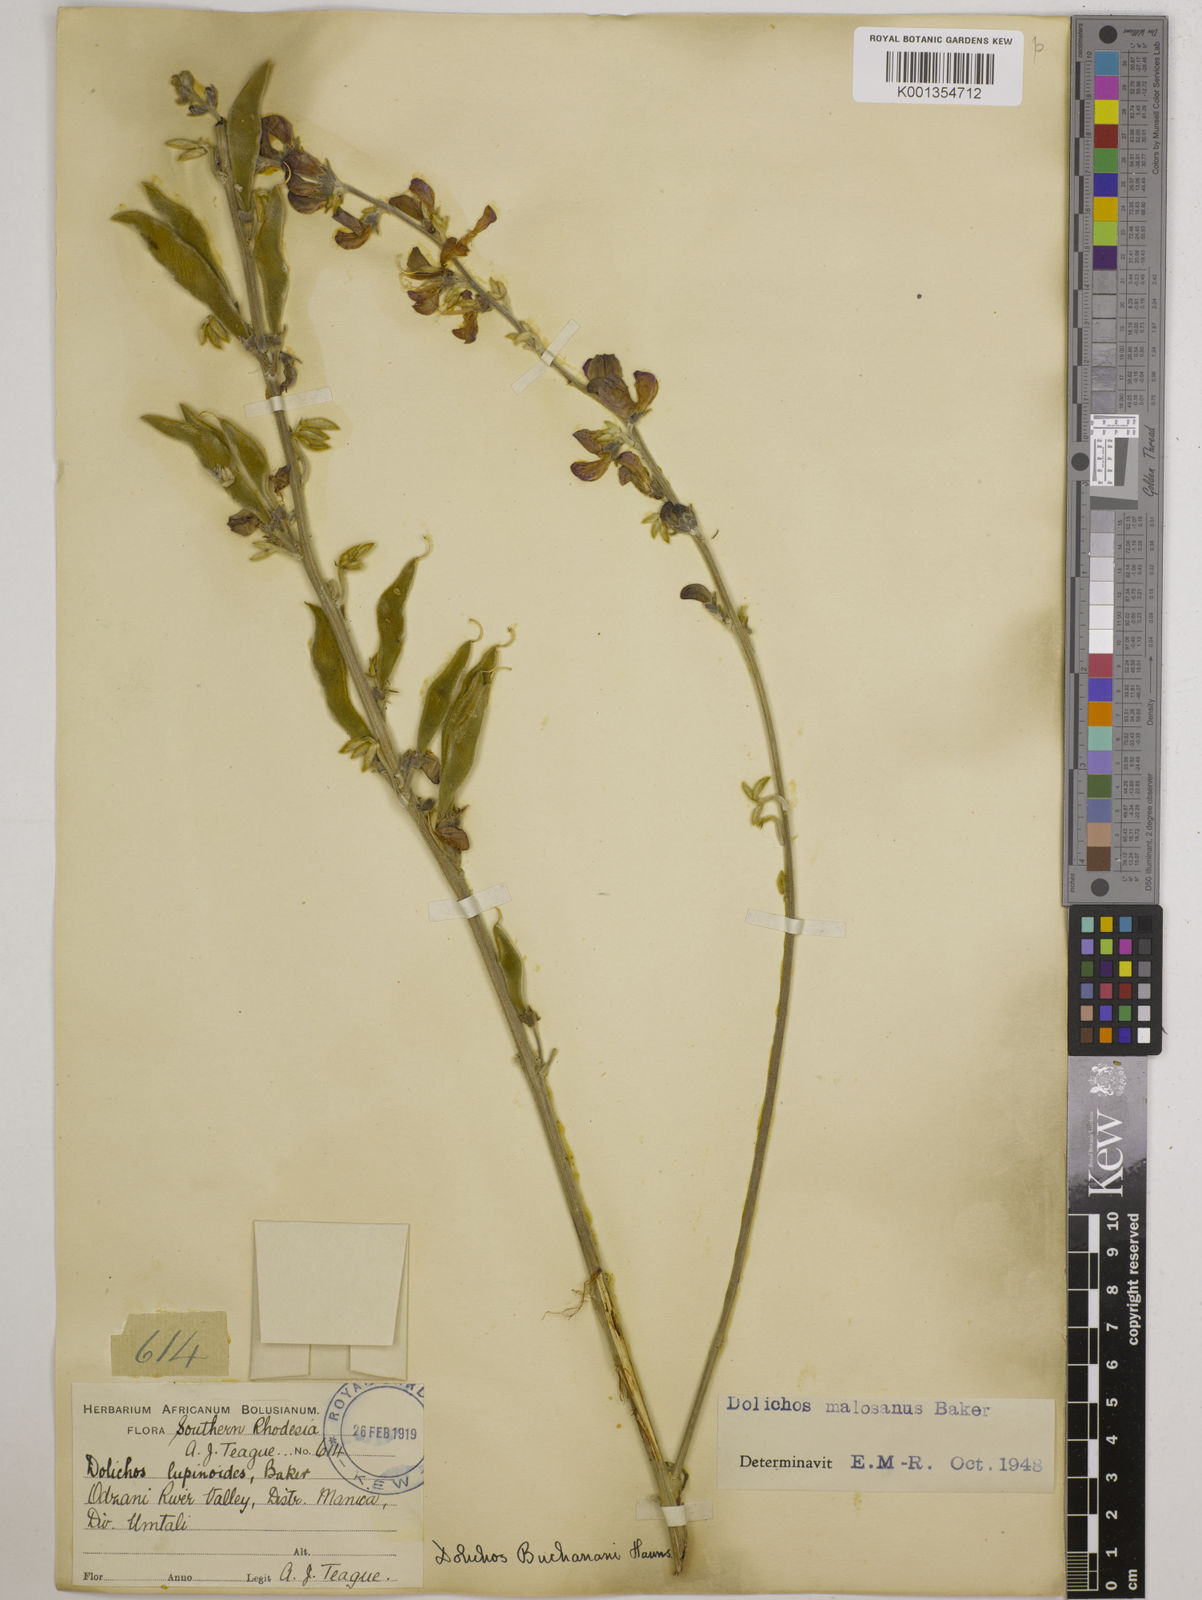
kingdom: Plantae
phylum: Tracheophyta
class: Magnoliopsida
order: Fabales
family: Fabaceae
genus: Dolichos
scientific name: Dolichos kilimandscharicus
